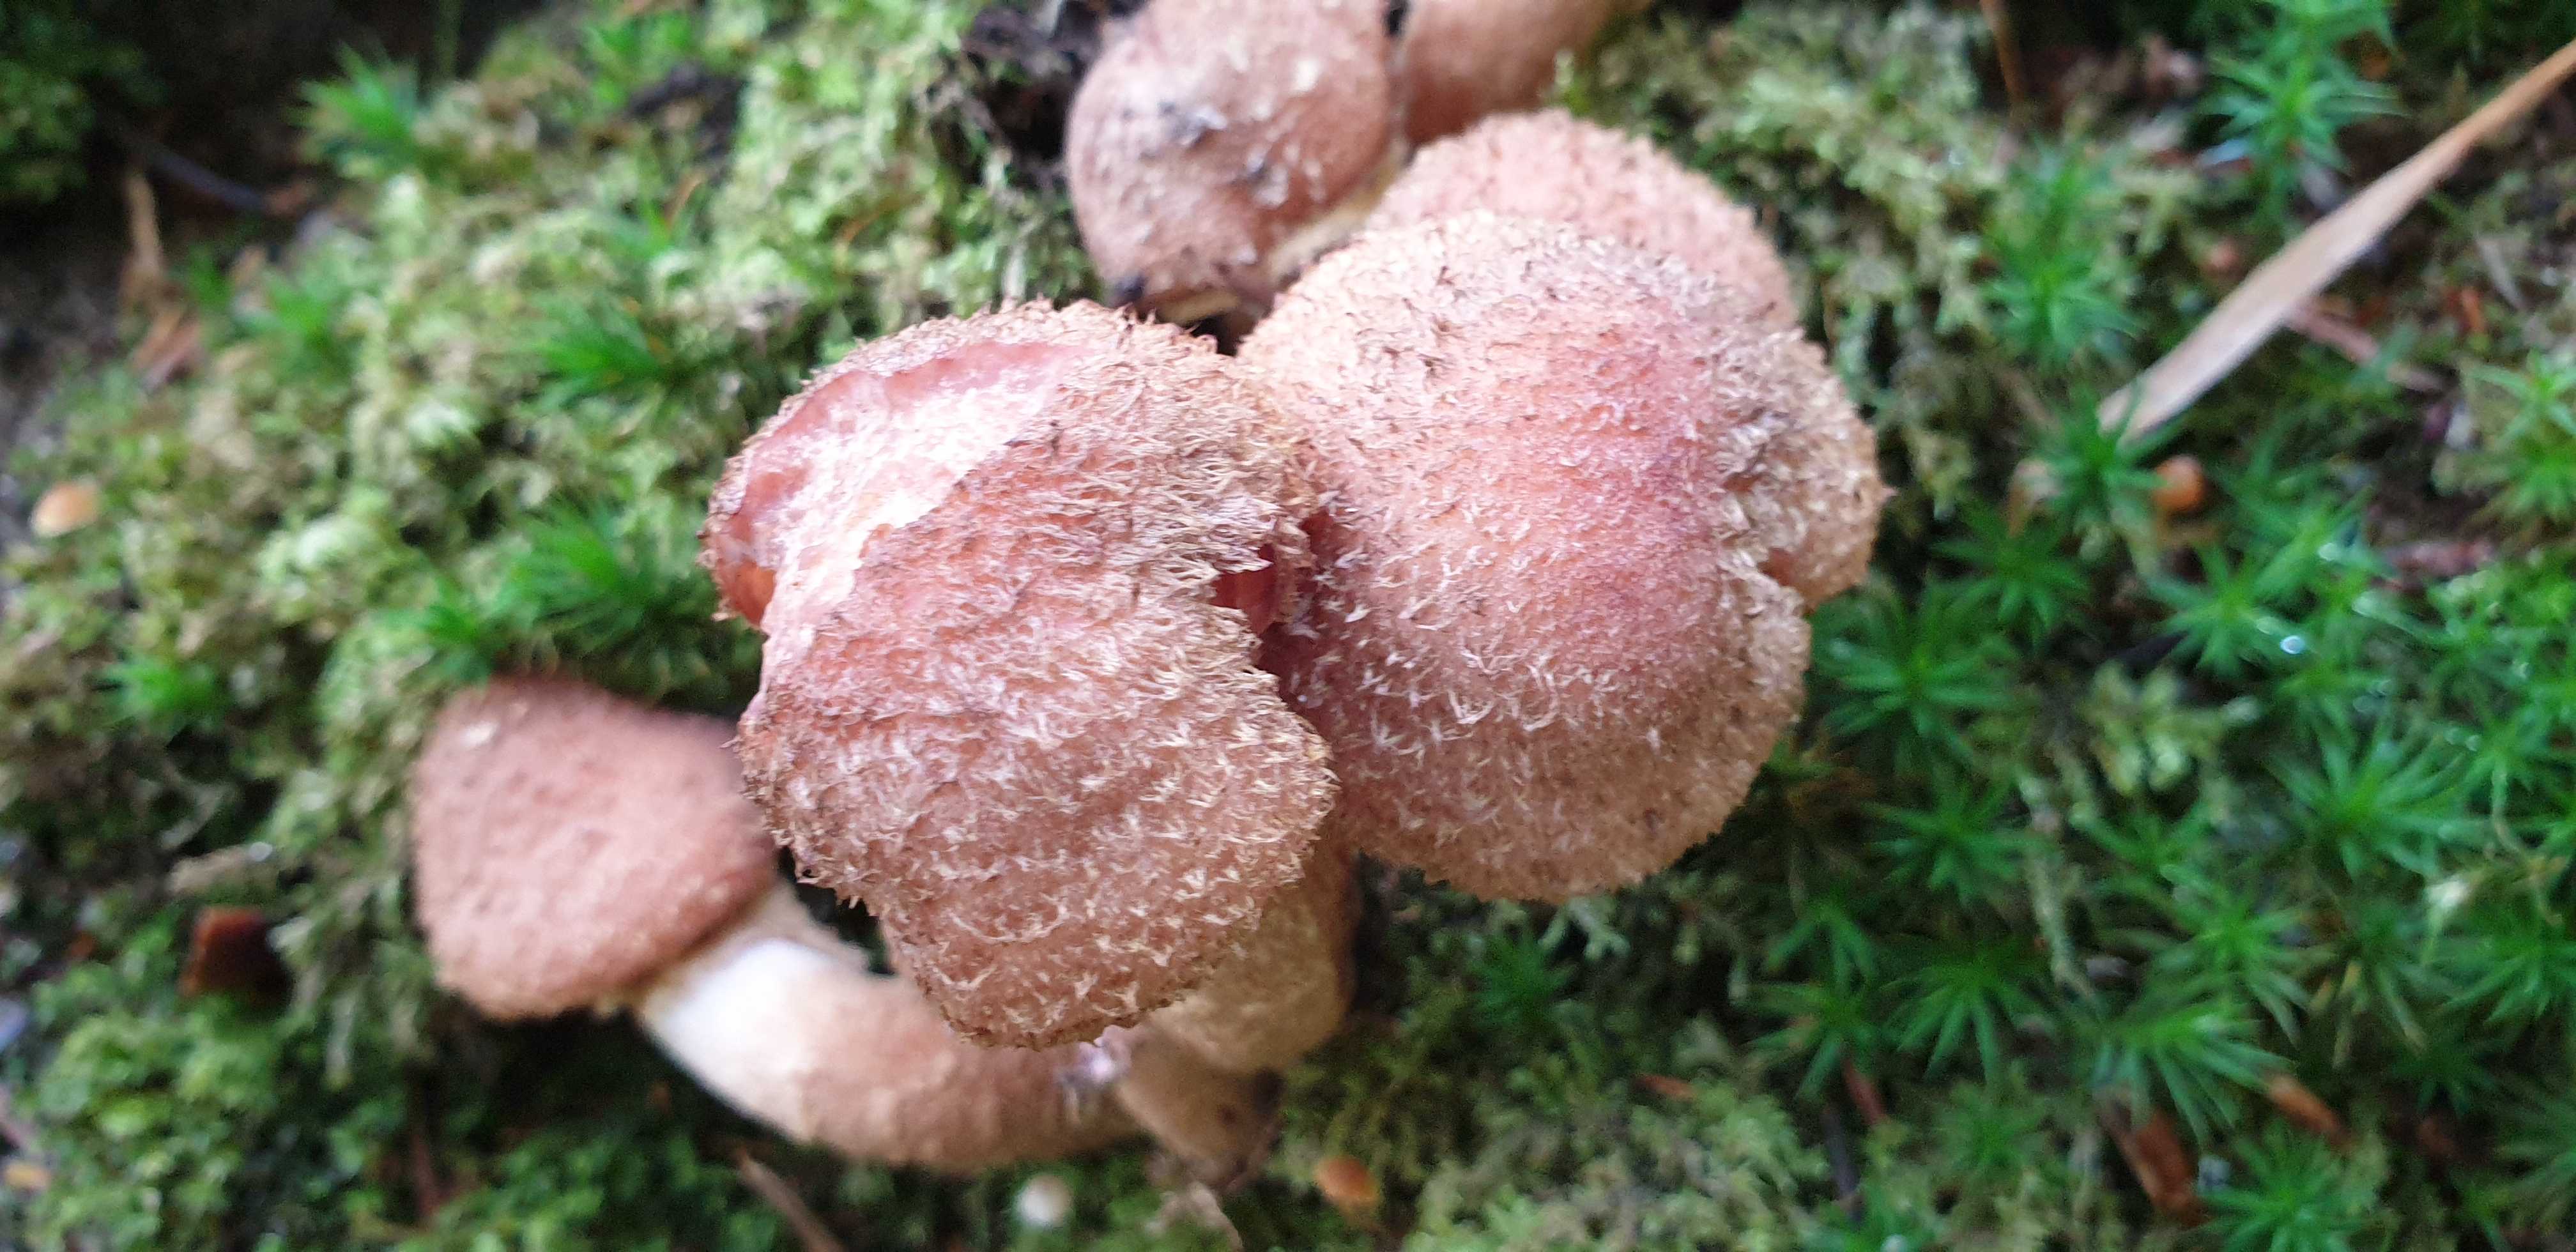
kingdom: Fungi
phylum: Basidiomycota
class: Agaricomycetes
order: Agaricales
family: Physalacriaceae
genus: Armillaria
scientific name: Armillaria lutea
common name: køllestokket honningsvamp
